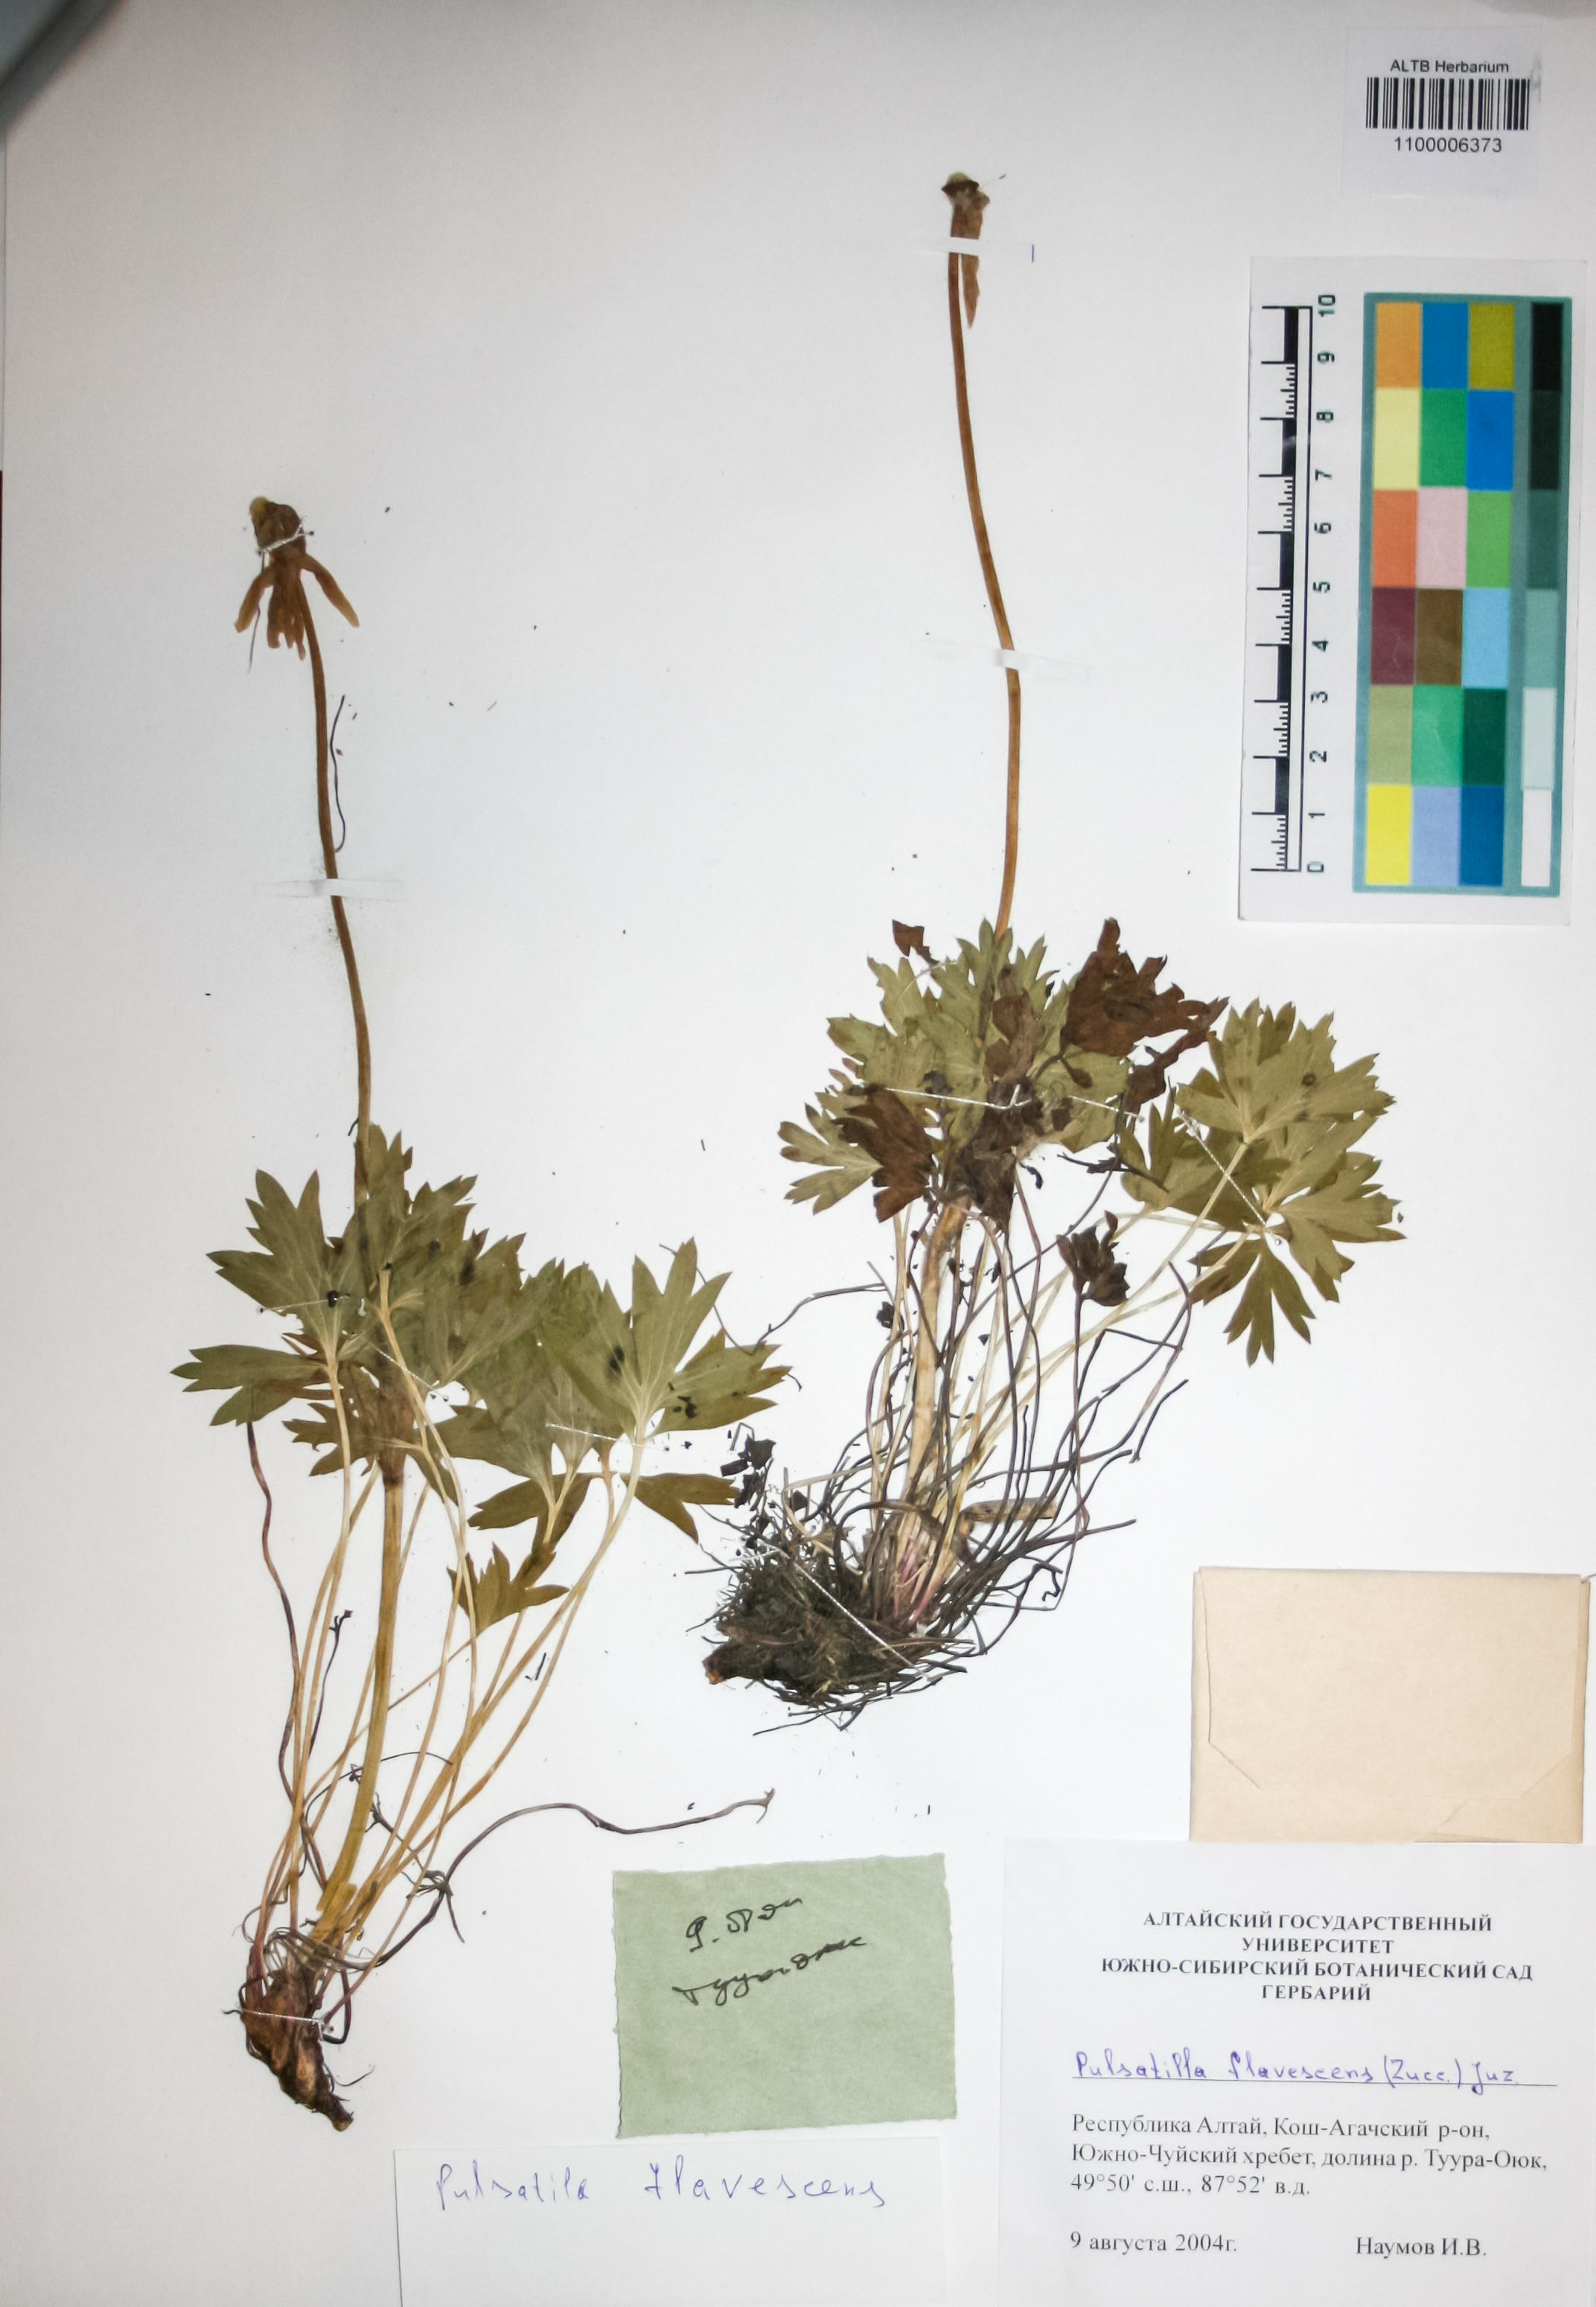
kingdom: Plantae
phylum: Tracheophyta
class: Magnoliopsida
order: Ranunculales
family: Ranunculaceae
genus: Pulsatilla
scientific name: Pulsatilla patens
